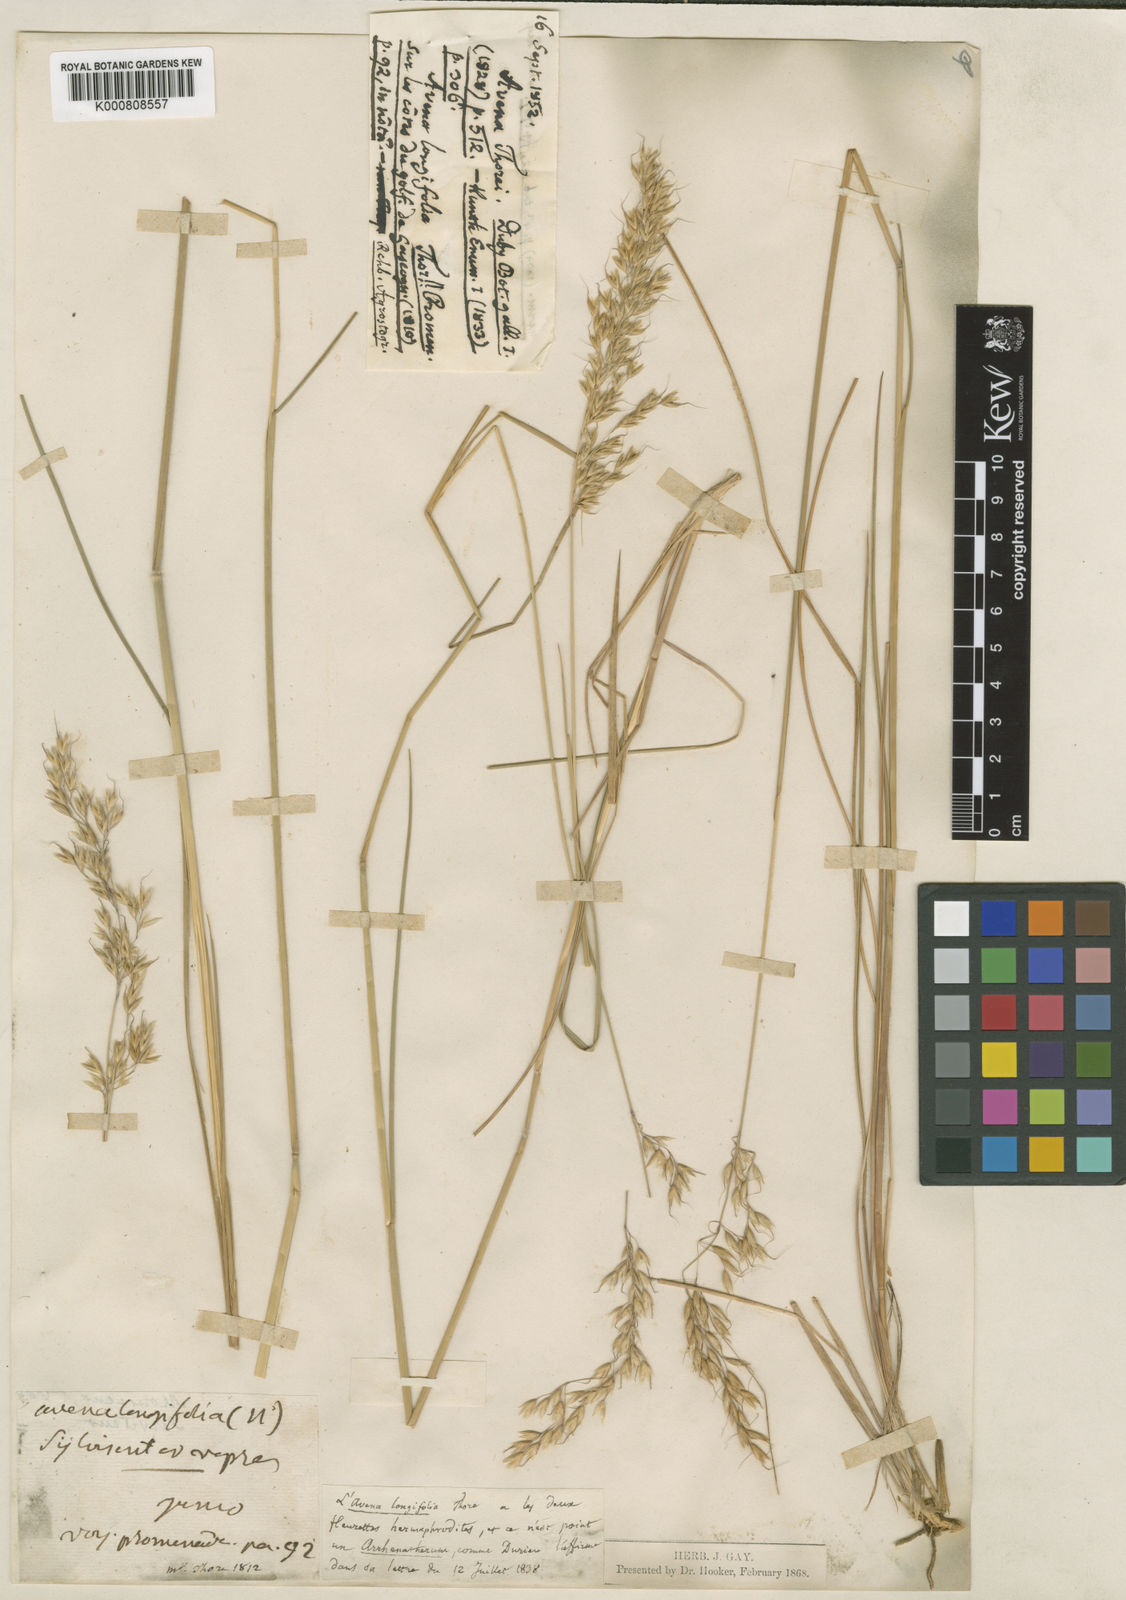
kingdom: Plantae
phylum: Tracheophyta
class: Liliopsida
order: Poales
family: Poaceae
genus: Arrhenatherum
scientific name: Arrhenatherum longifolium
